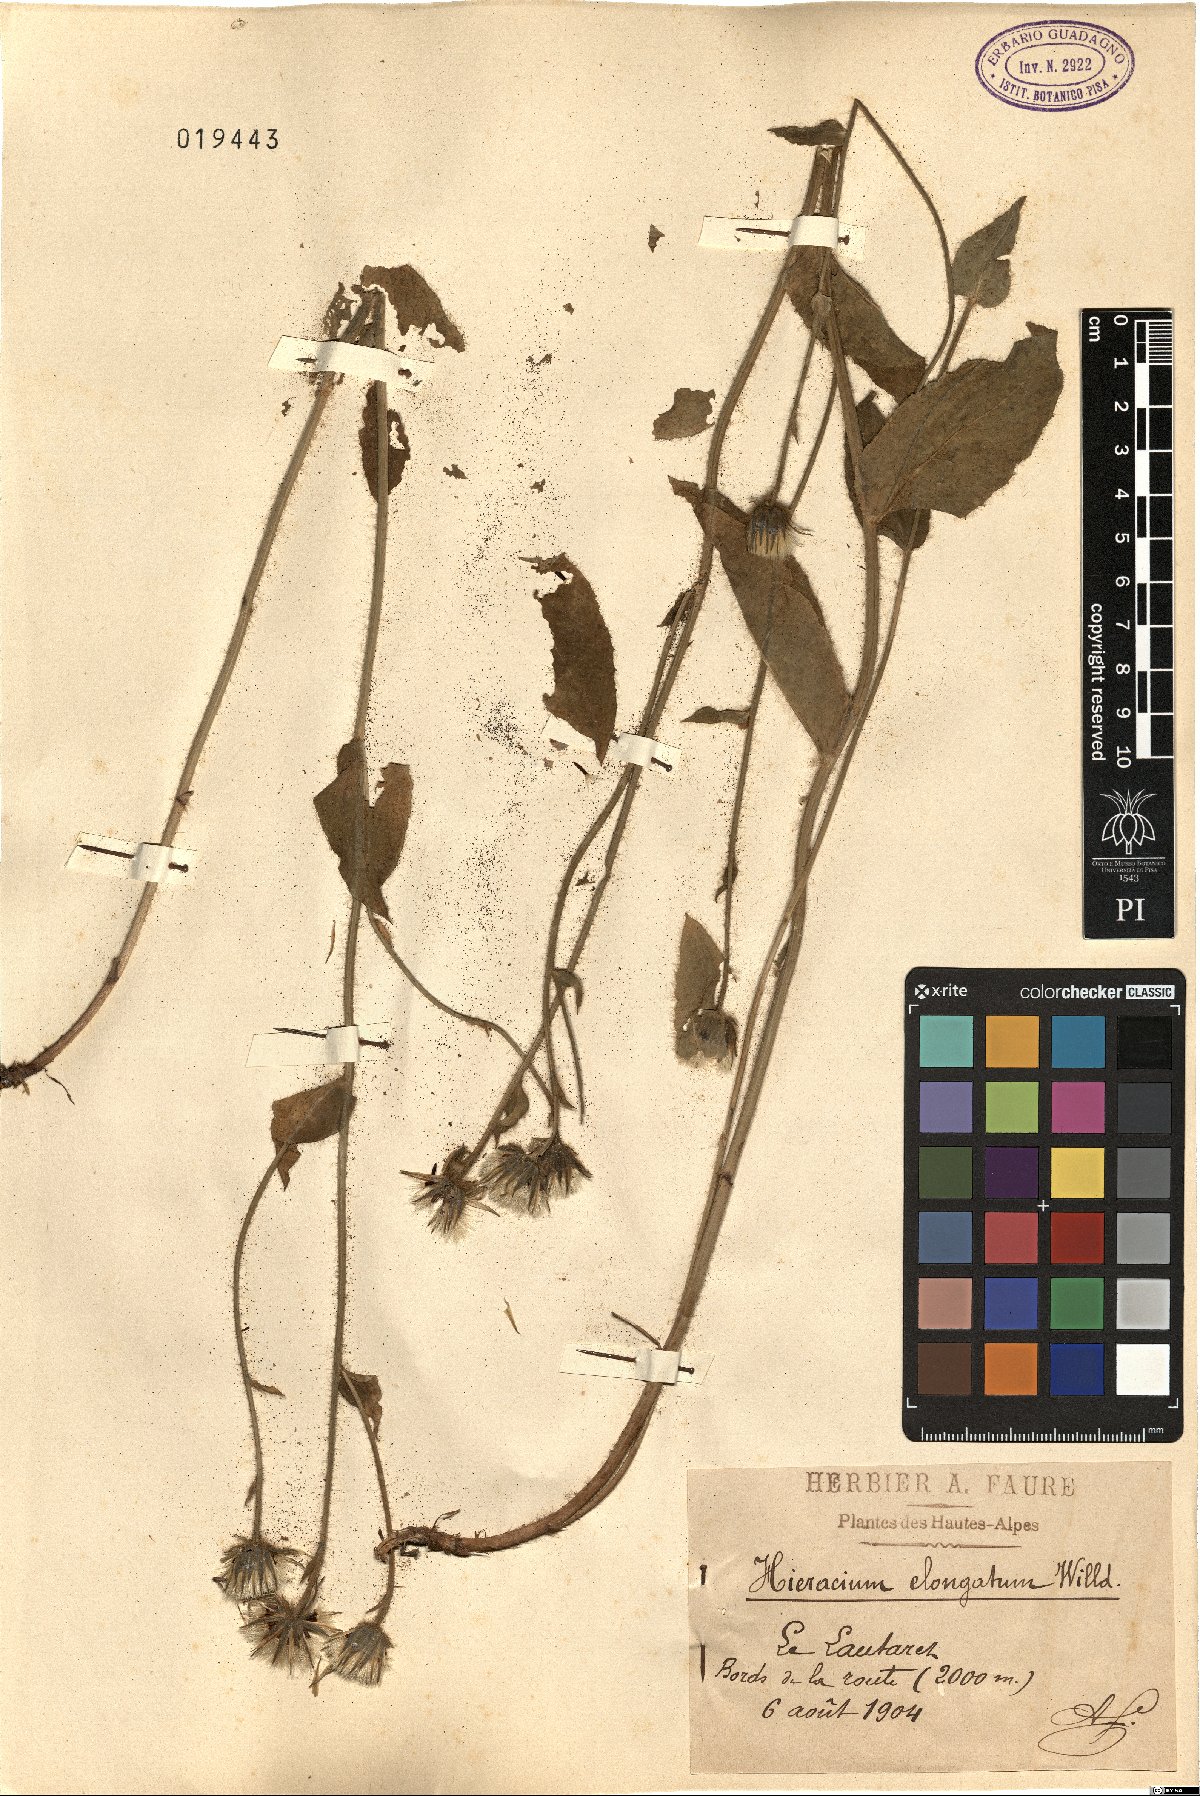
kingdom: Plantae
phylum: Tracheophyta
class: Magnoliopsida
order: Asterales
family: Asteraceae
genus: Hieracium
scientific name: Hieracium valdepilosum
